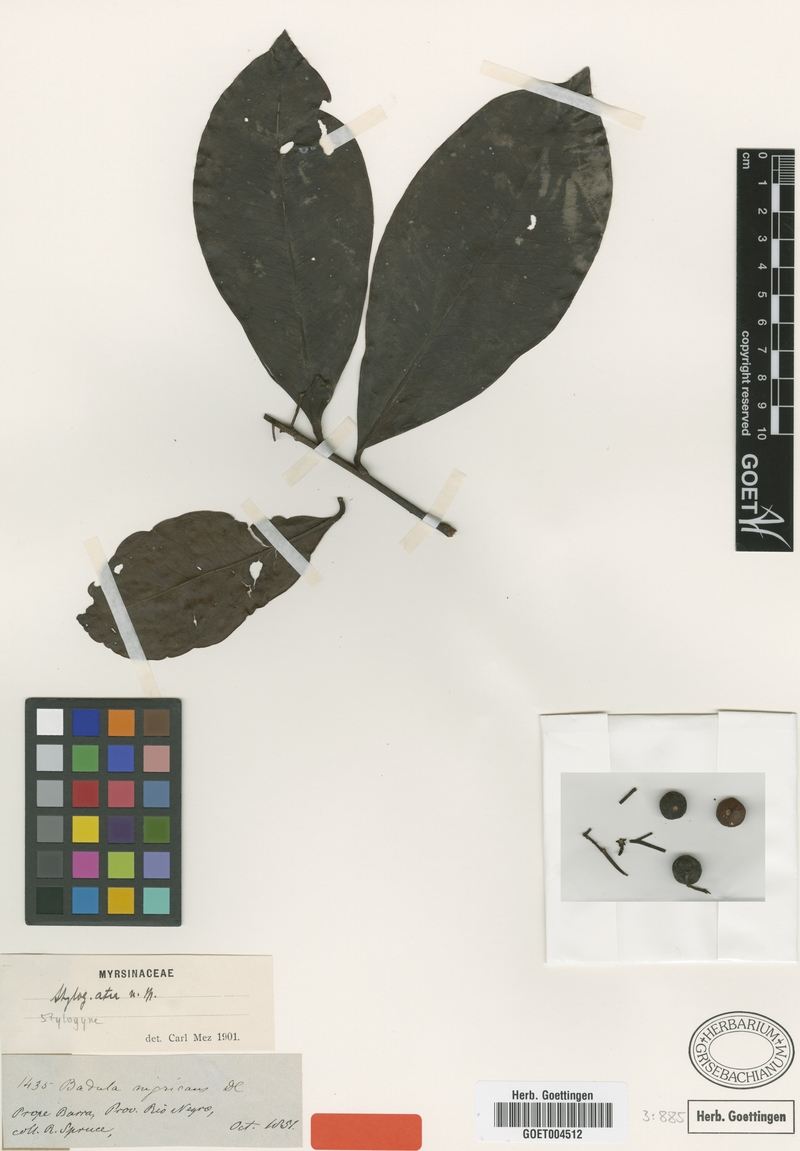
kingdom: Plantae
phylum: Tracheophyta
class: Magnoliopsida
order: Ericales
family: Primulaceae
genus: Stylogyne
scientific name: Stylogyne atra
